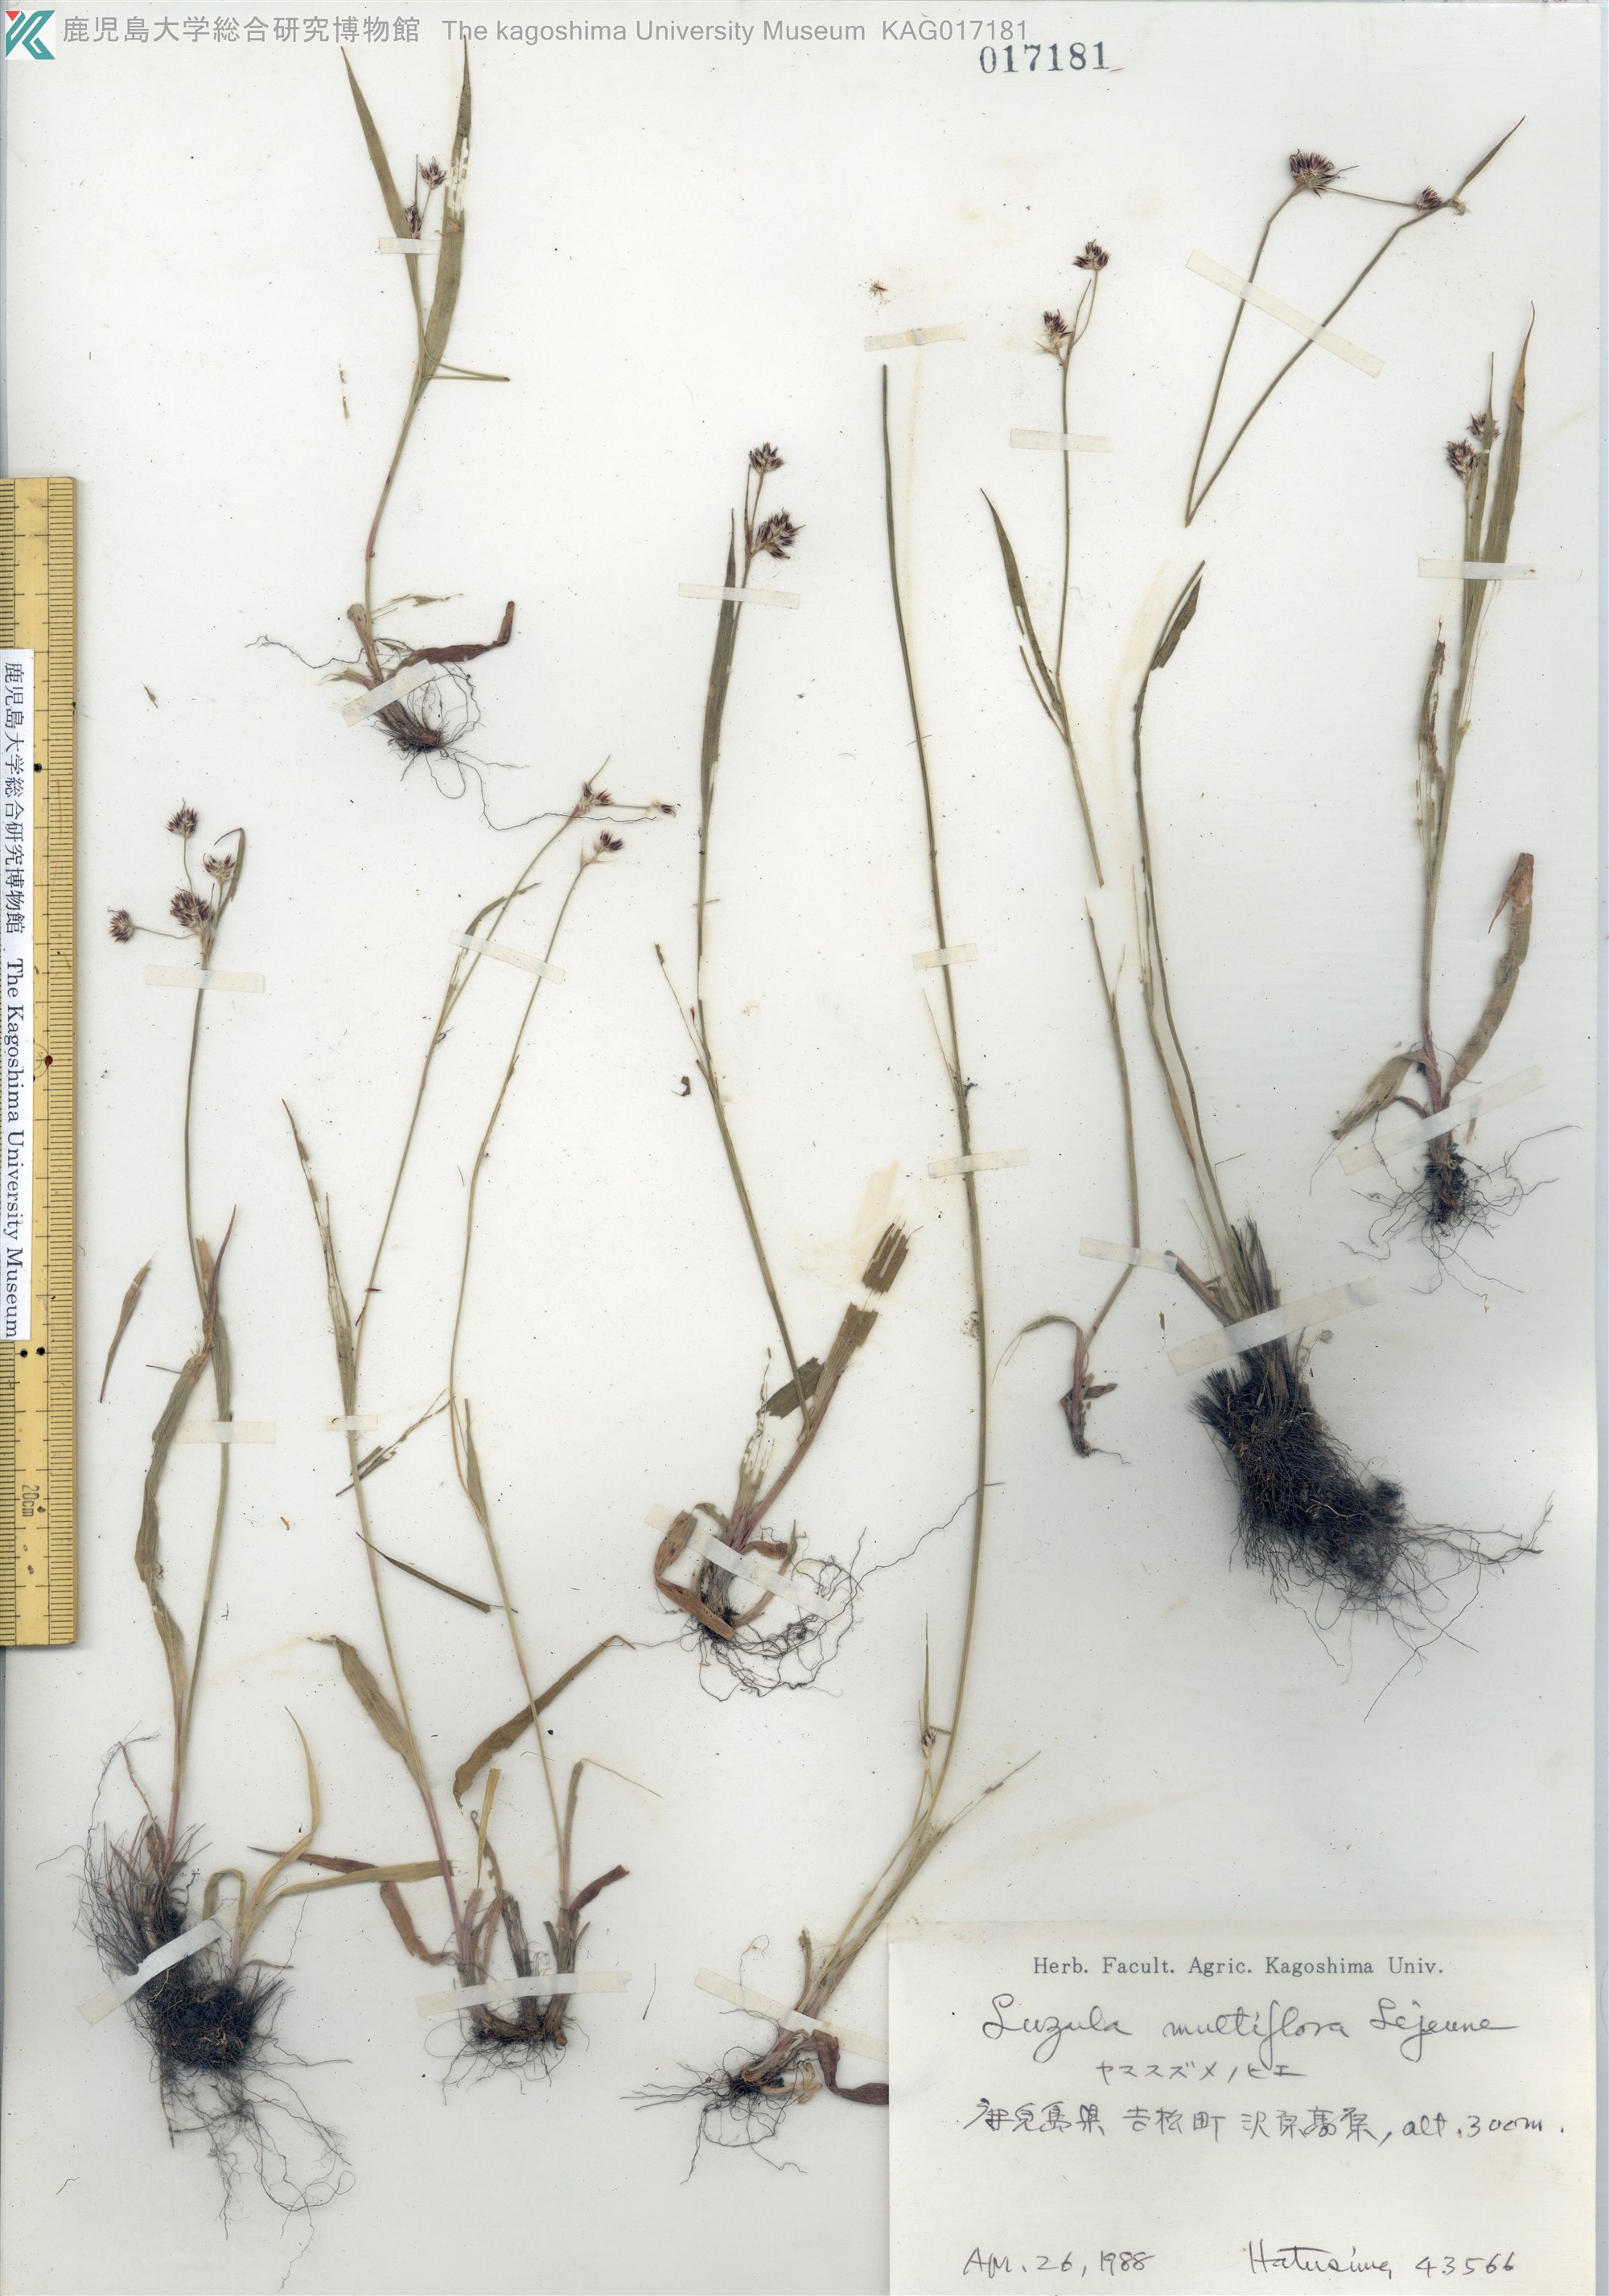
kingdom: Plantae
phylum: Tracheophyta
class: Liliopsida
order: Poales
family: Juncaceae
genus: Luzula
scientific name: Luzula multiflora
